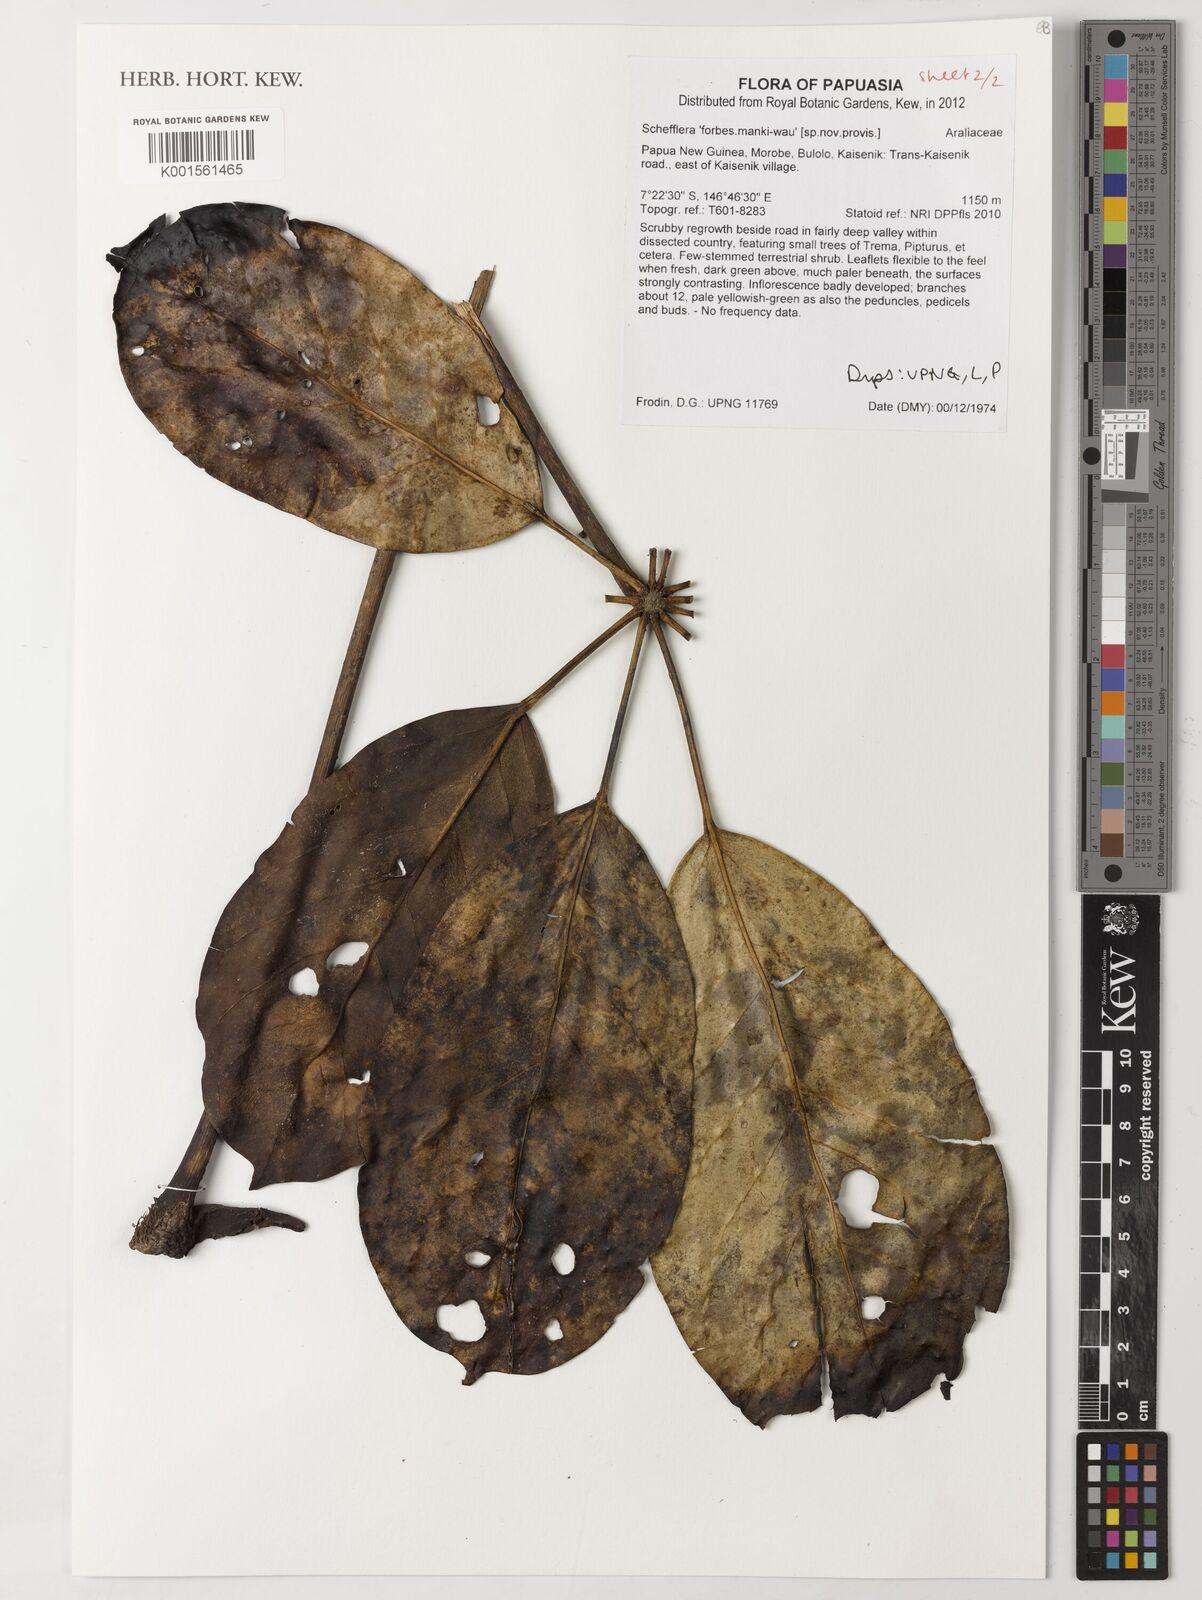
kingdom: Plantae
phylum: Tracheophyta
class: Magnoliopsida
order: Apiales
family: Araliaceae
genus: Schefflera
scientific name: Schefflera
